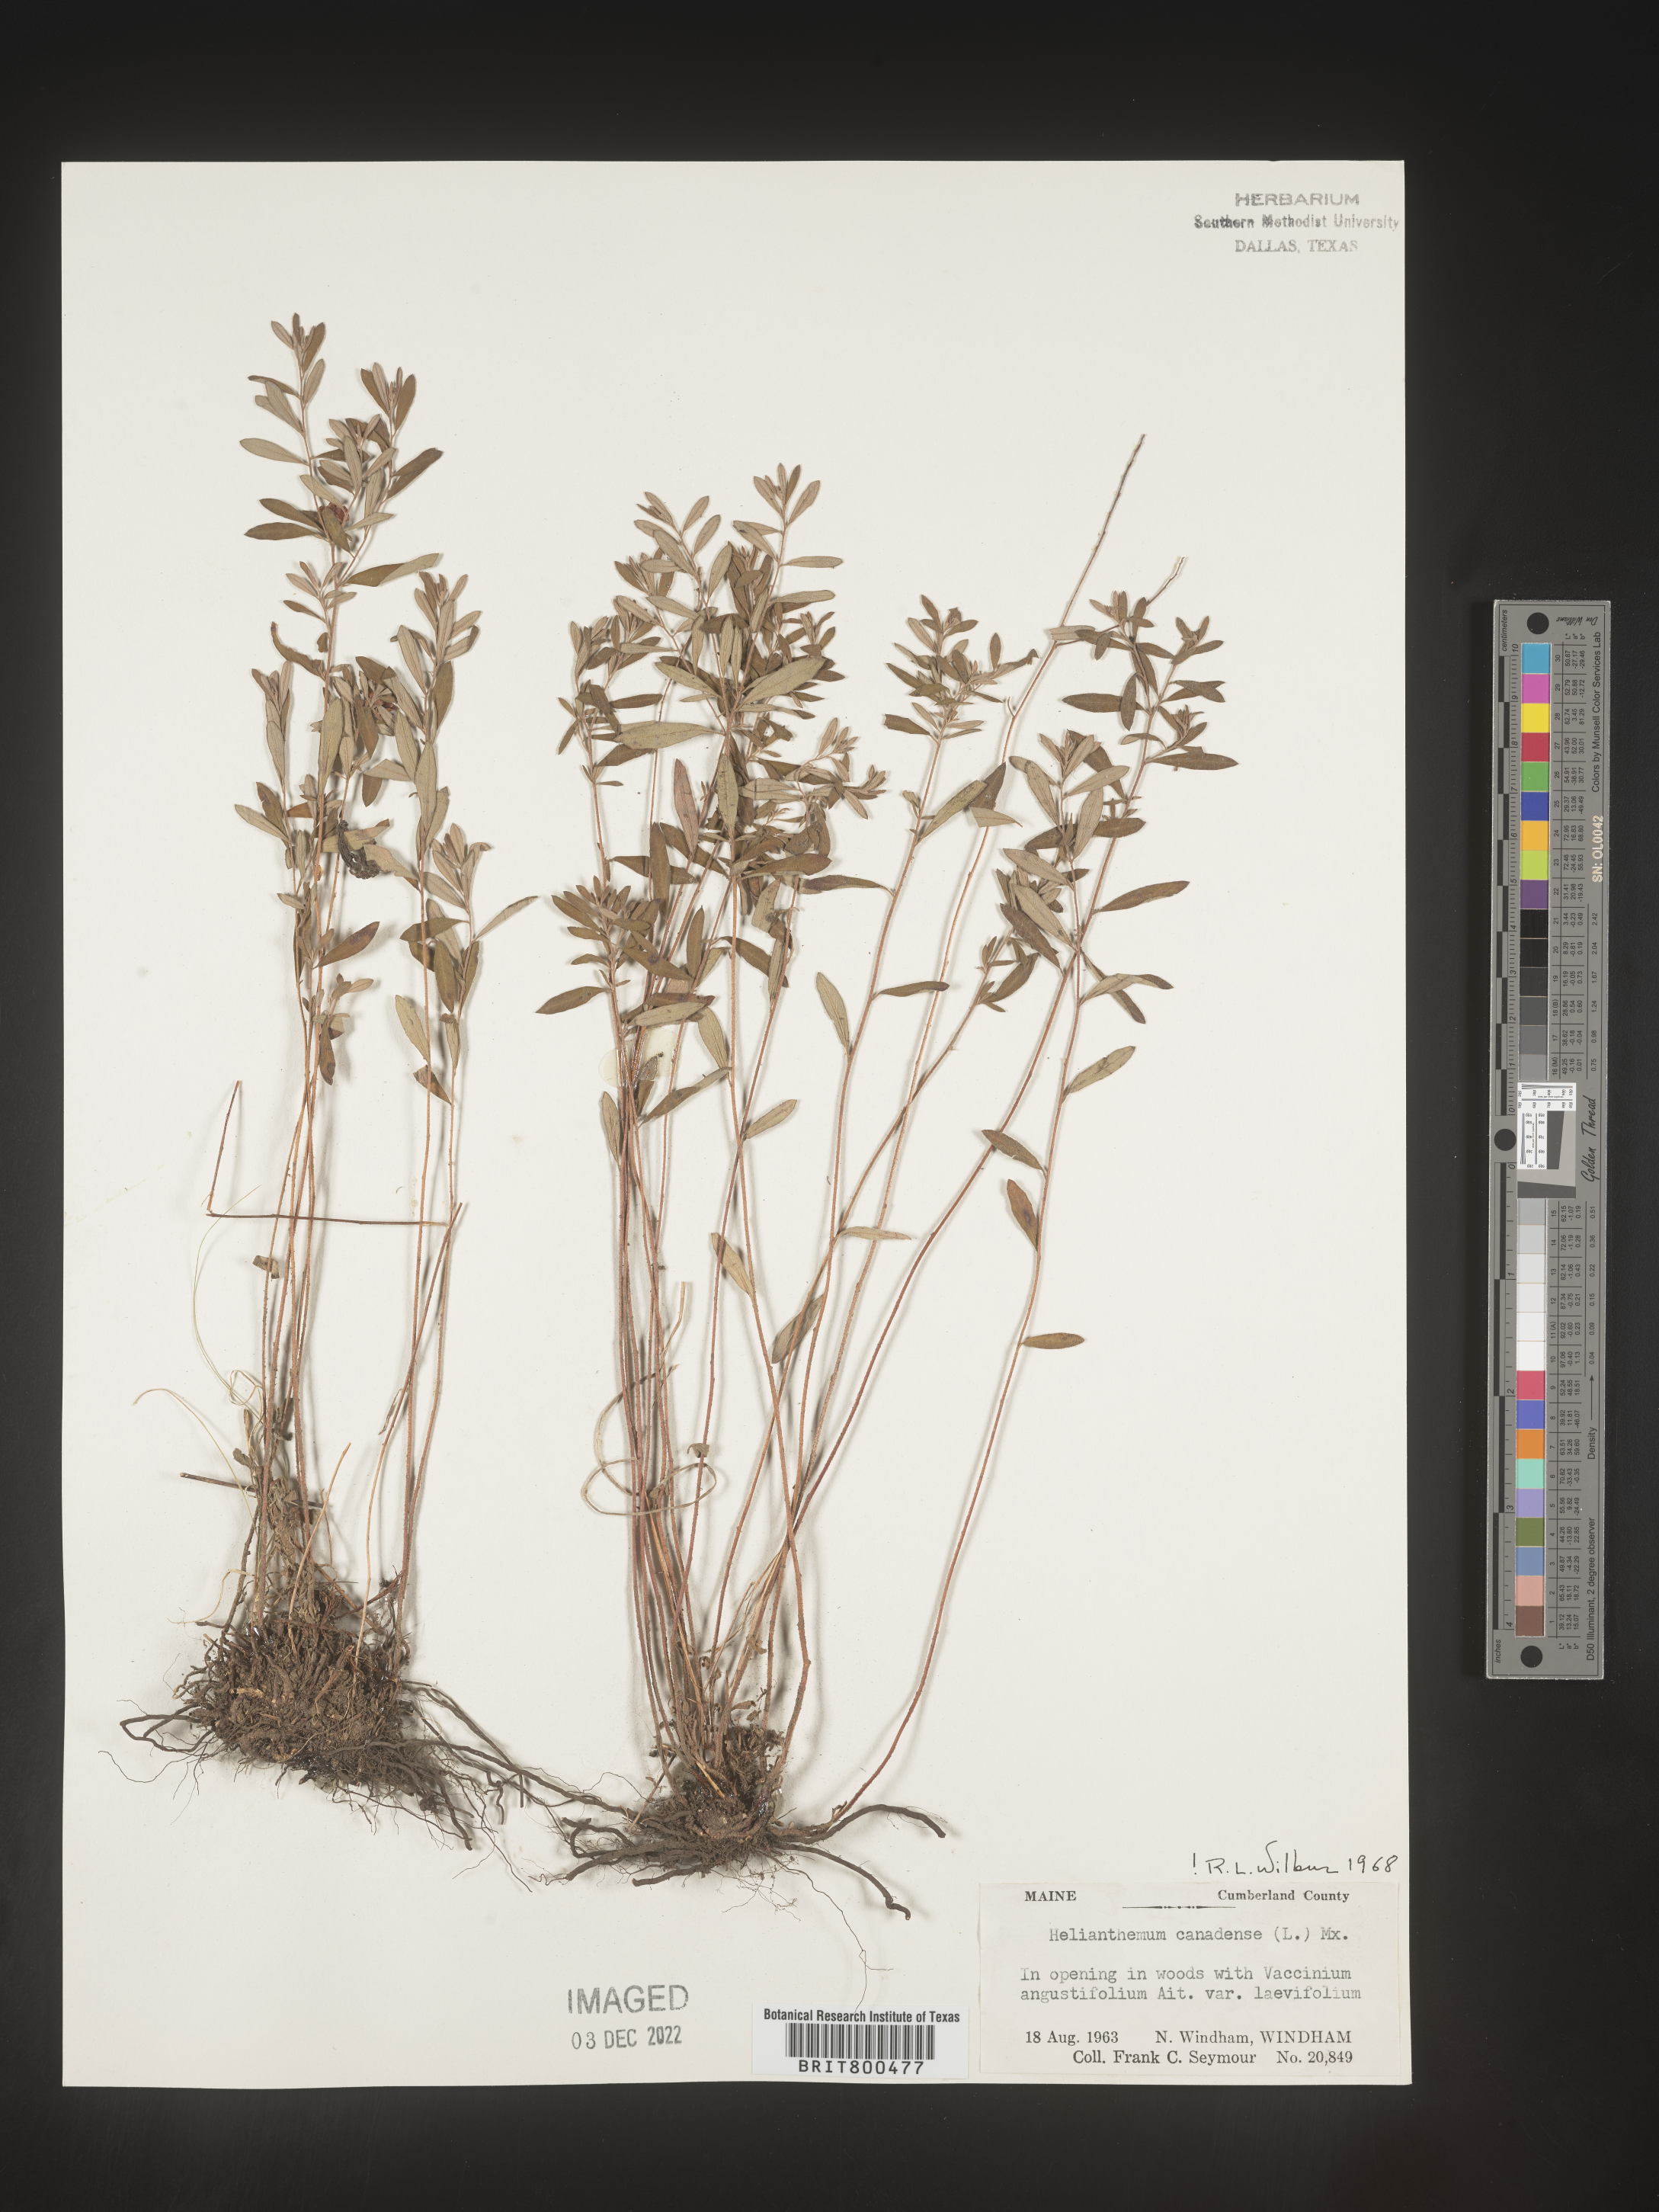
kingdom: Plantae
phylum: Tracheophyta
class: Magnoliopsida
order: Malvales
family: Cistaceae
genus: Crocanthemum
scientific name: Crocanthemum canadense
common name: Canada frostweed
